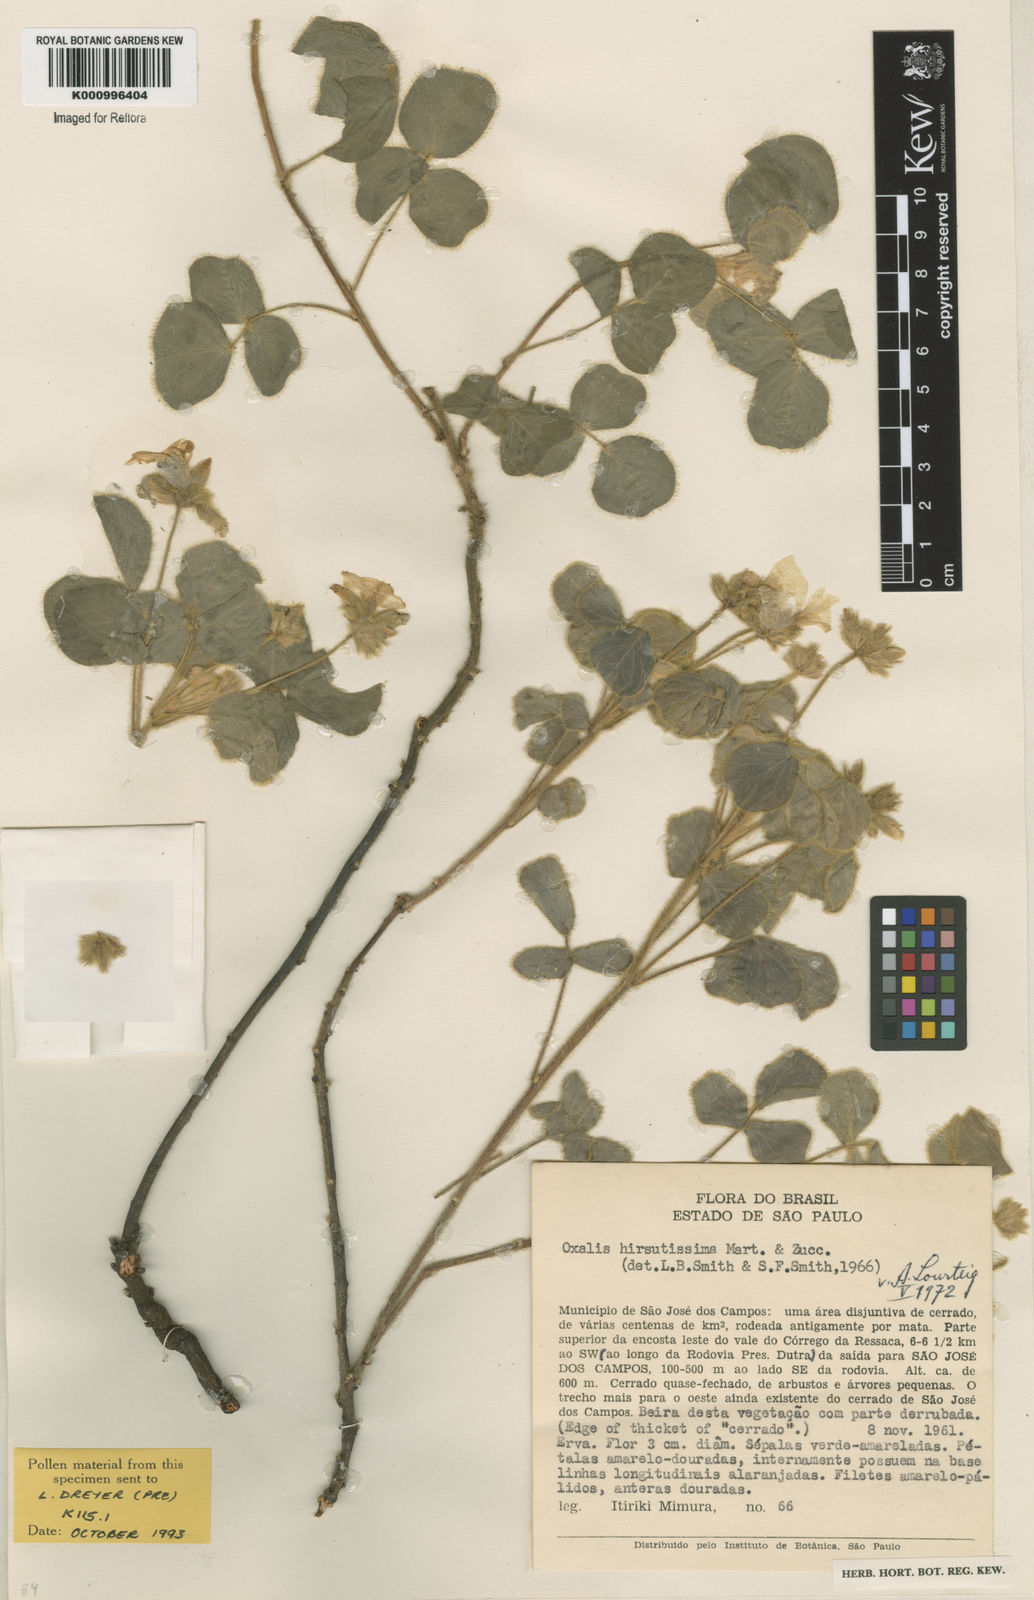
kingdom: Plantae
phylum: Tracheophyta
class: Magnoliopsida
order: Oxalidales
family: Oxalidaceae
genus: Oxalis
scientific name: Oxalis hirsutissima
